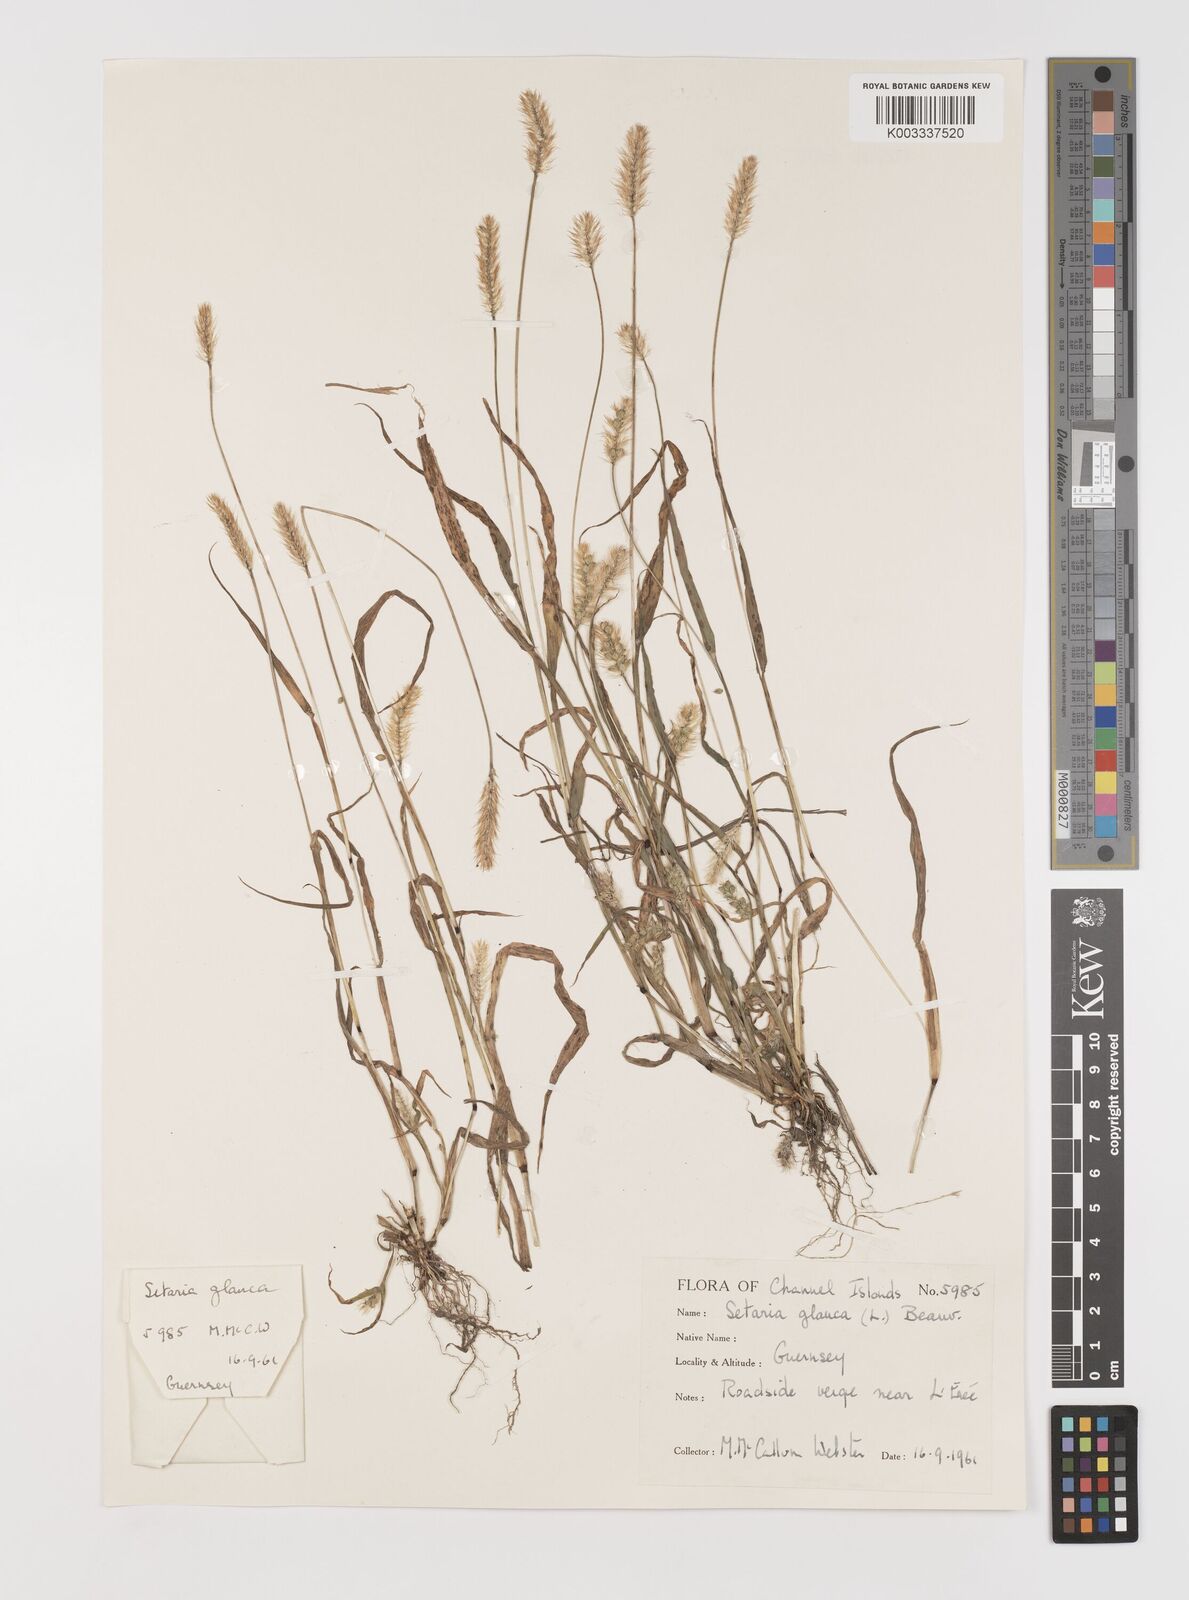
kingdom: Plantae
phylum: Tracheophyta
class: Liliopsida
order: Poales
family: Poaceae
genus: Setaria
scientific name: Setaria pumila
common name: Yellow bristle-grass
